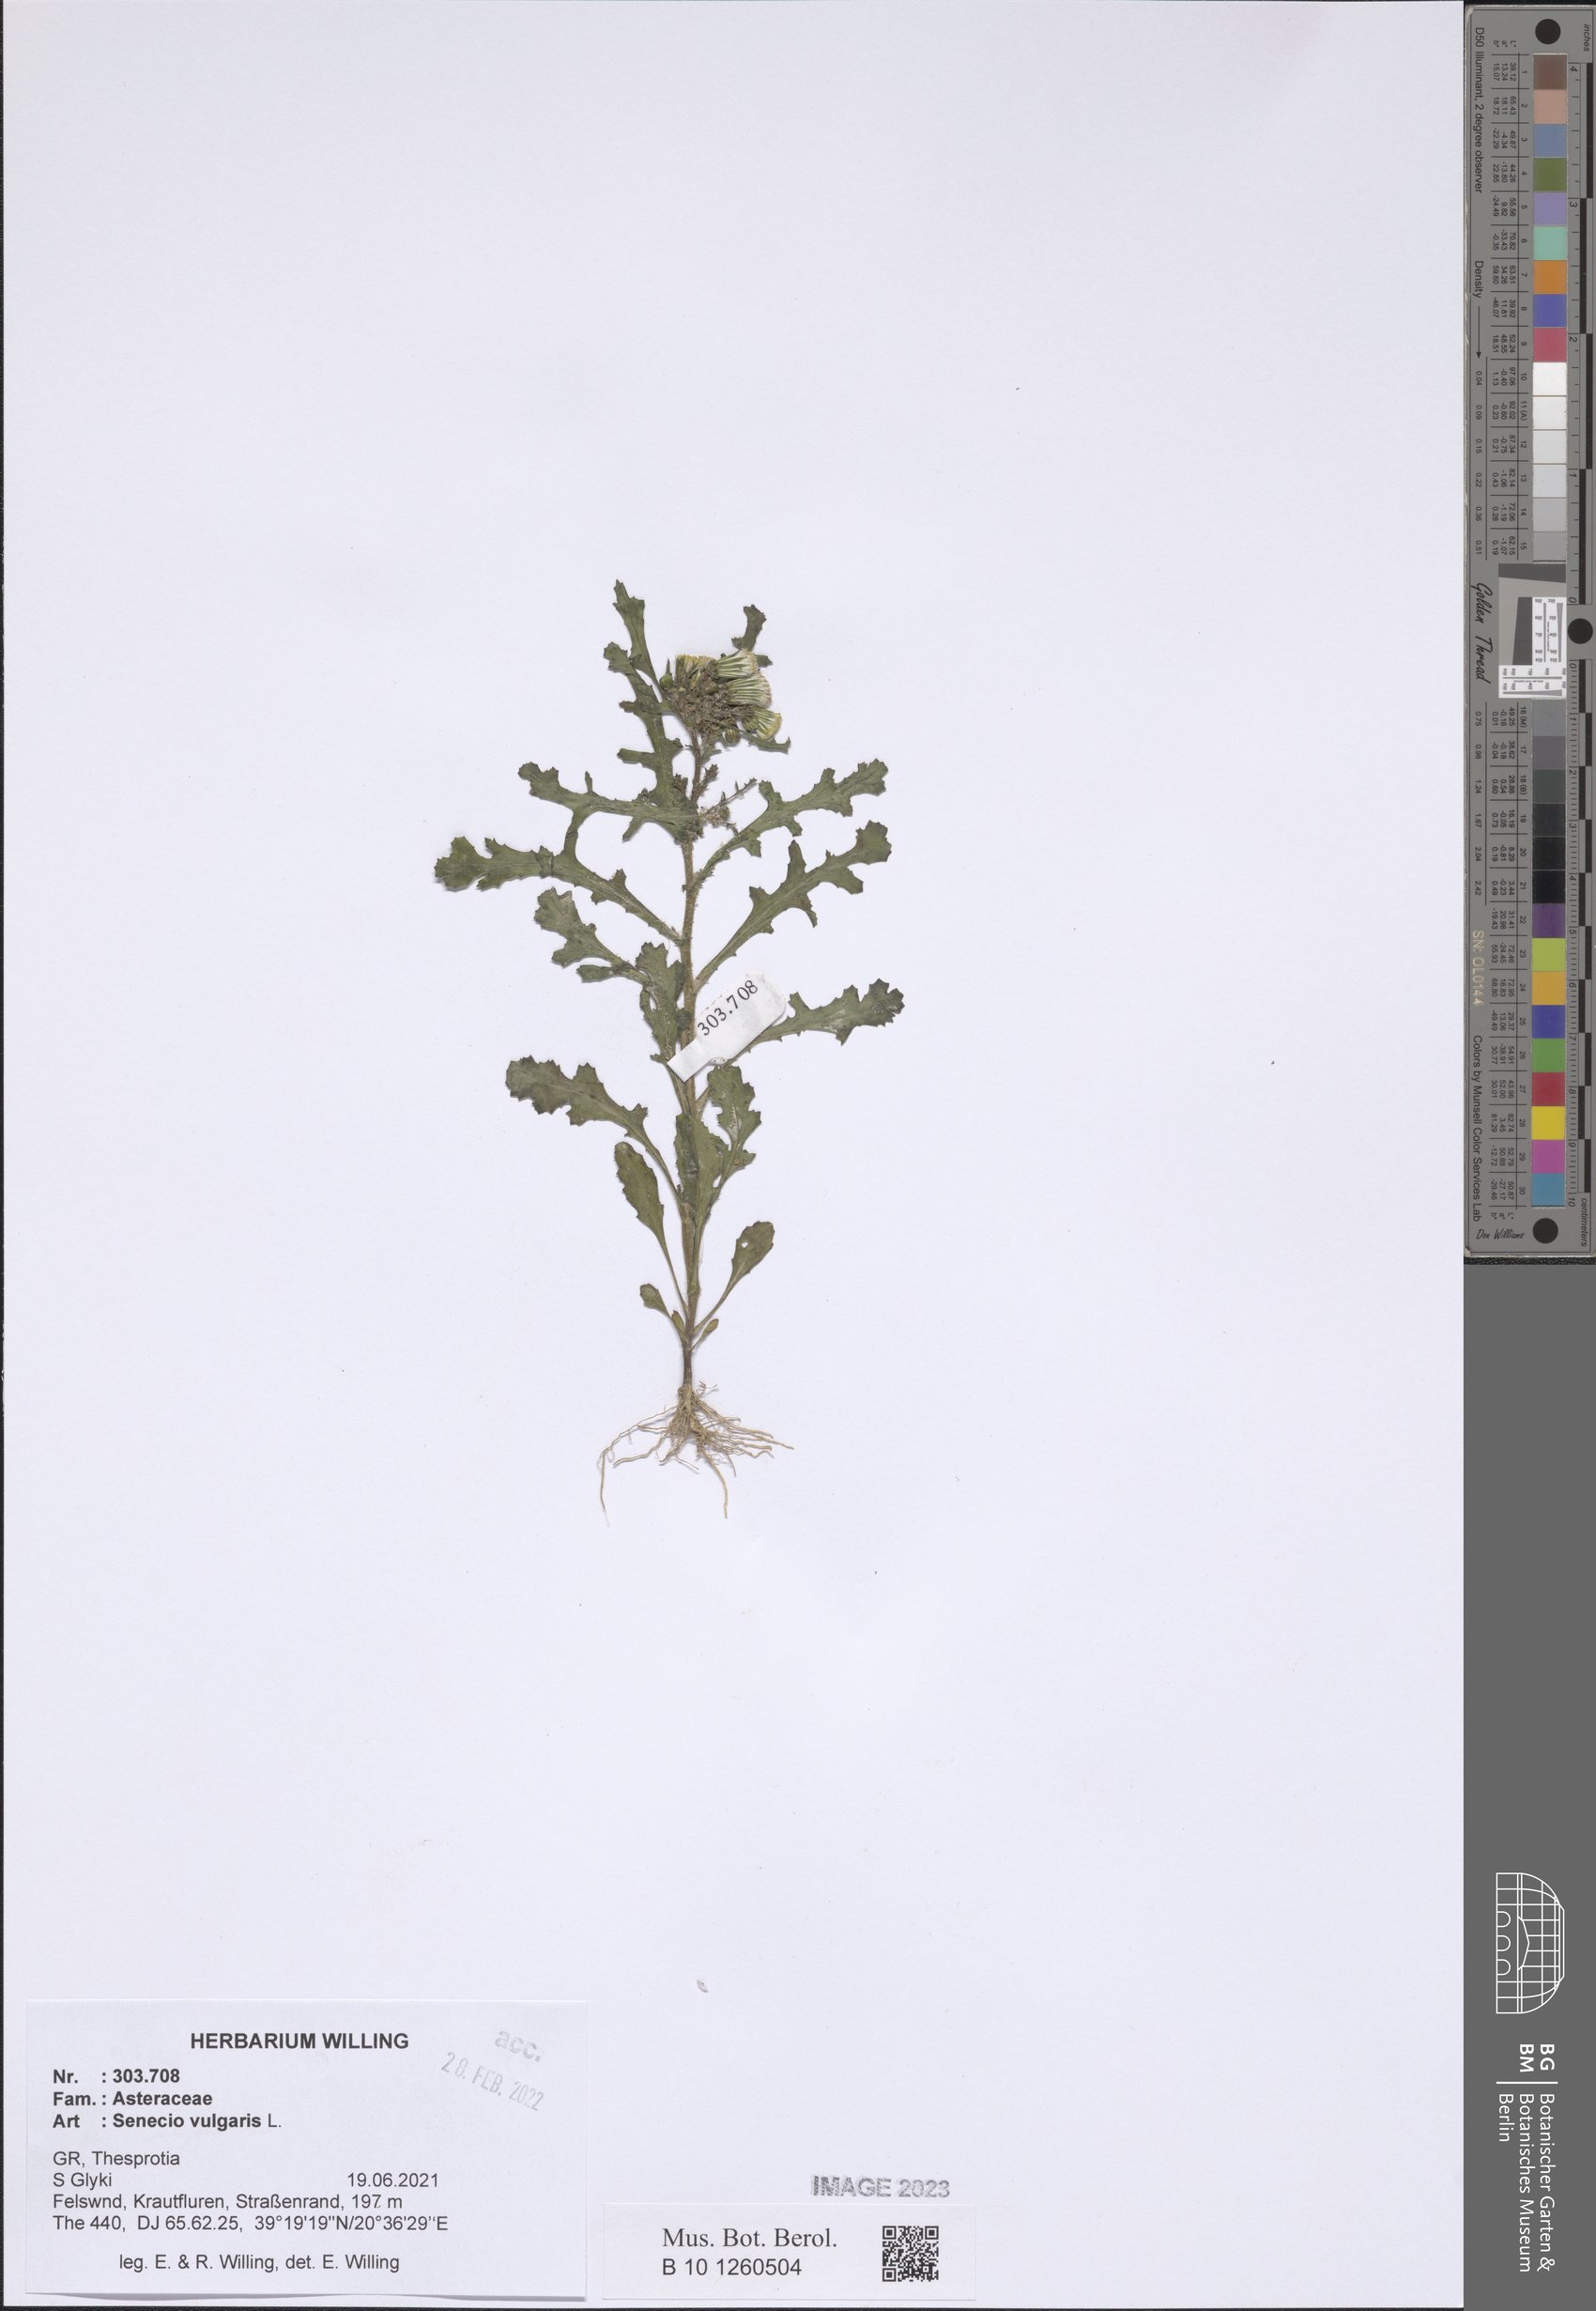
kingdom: Plantae
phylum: Tracheophyta
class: Magnoliopsida
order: Asterales
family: Asteraceae
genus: Senecio
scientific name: Senecio vulgaris
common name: Old-man-in-the-spring
